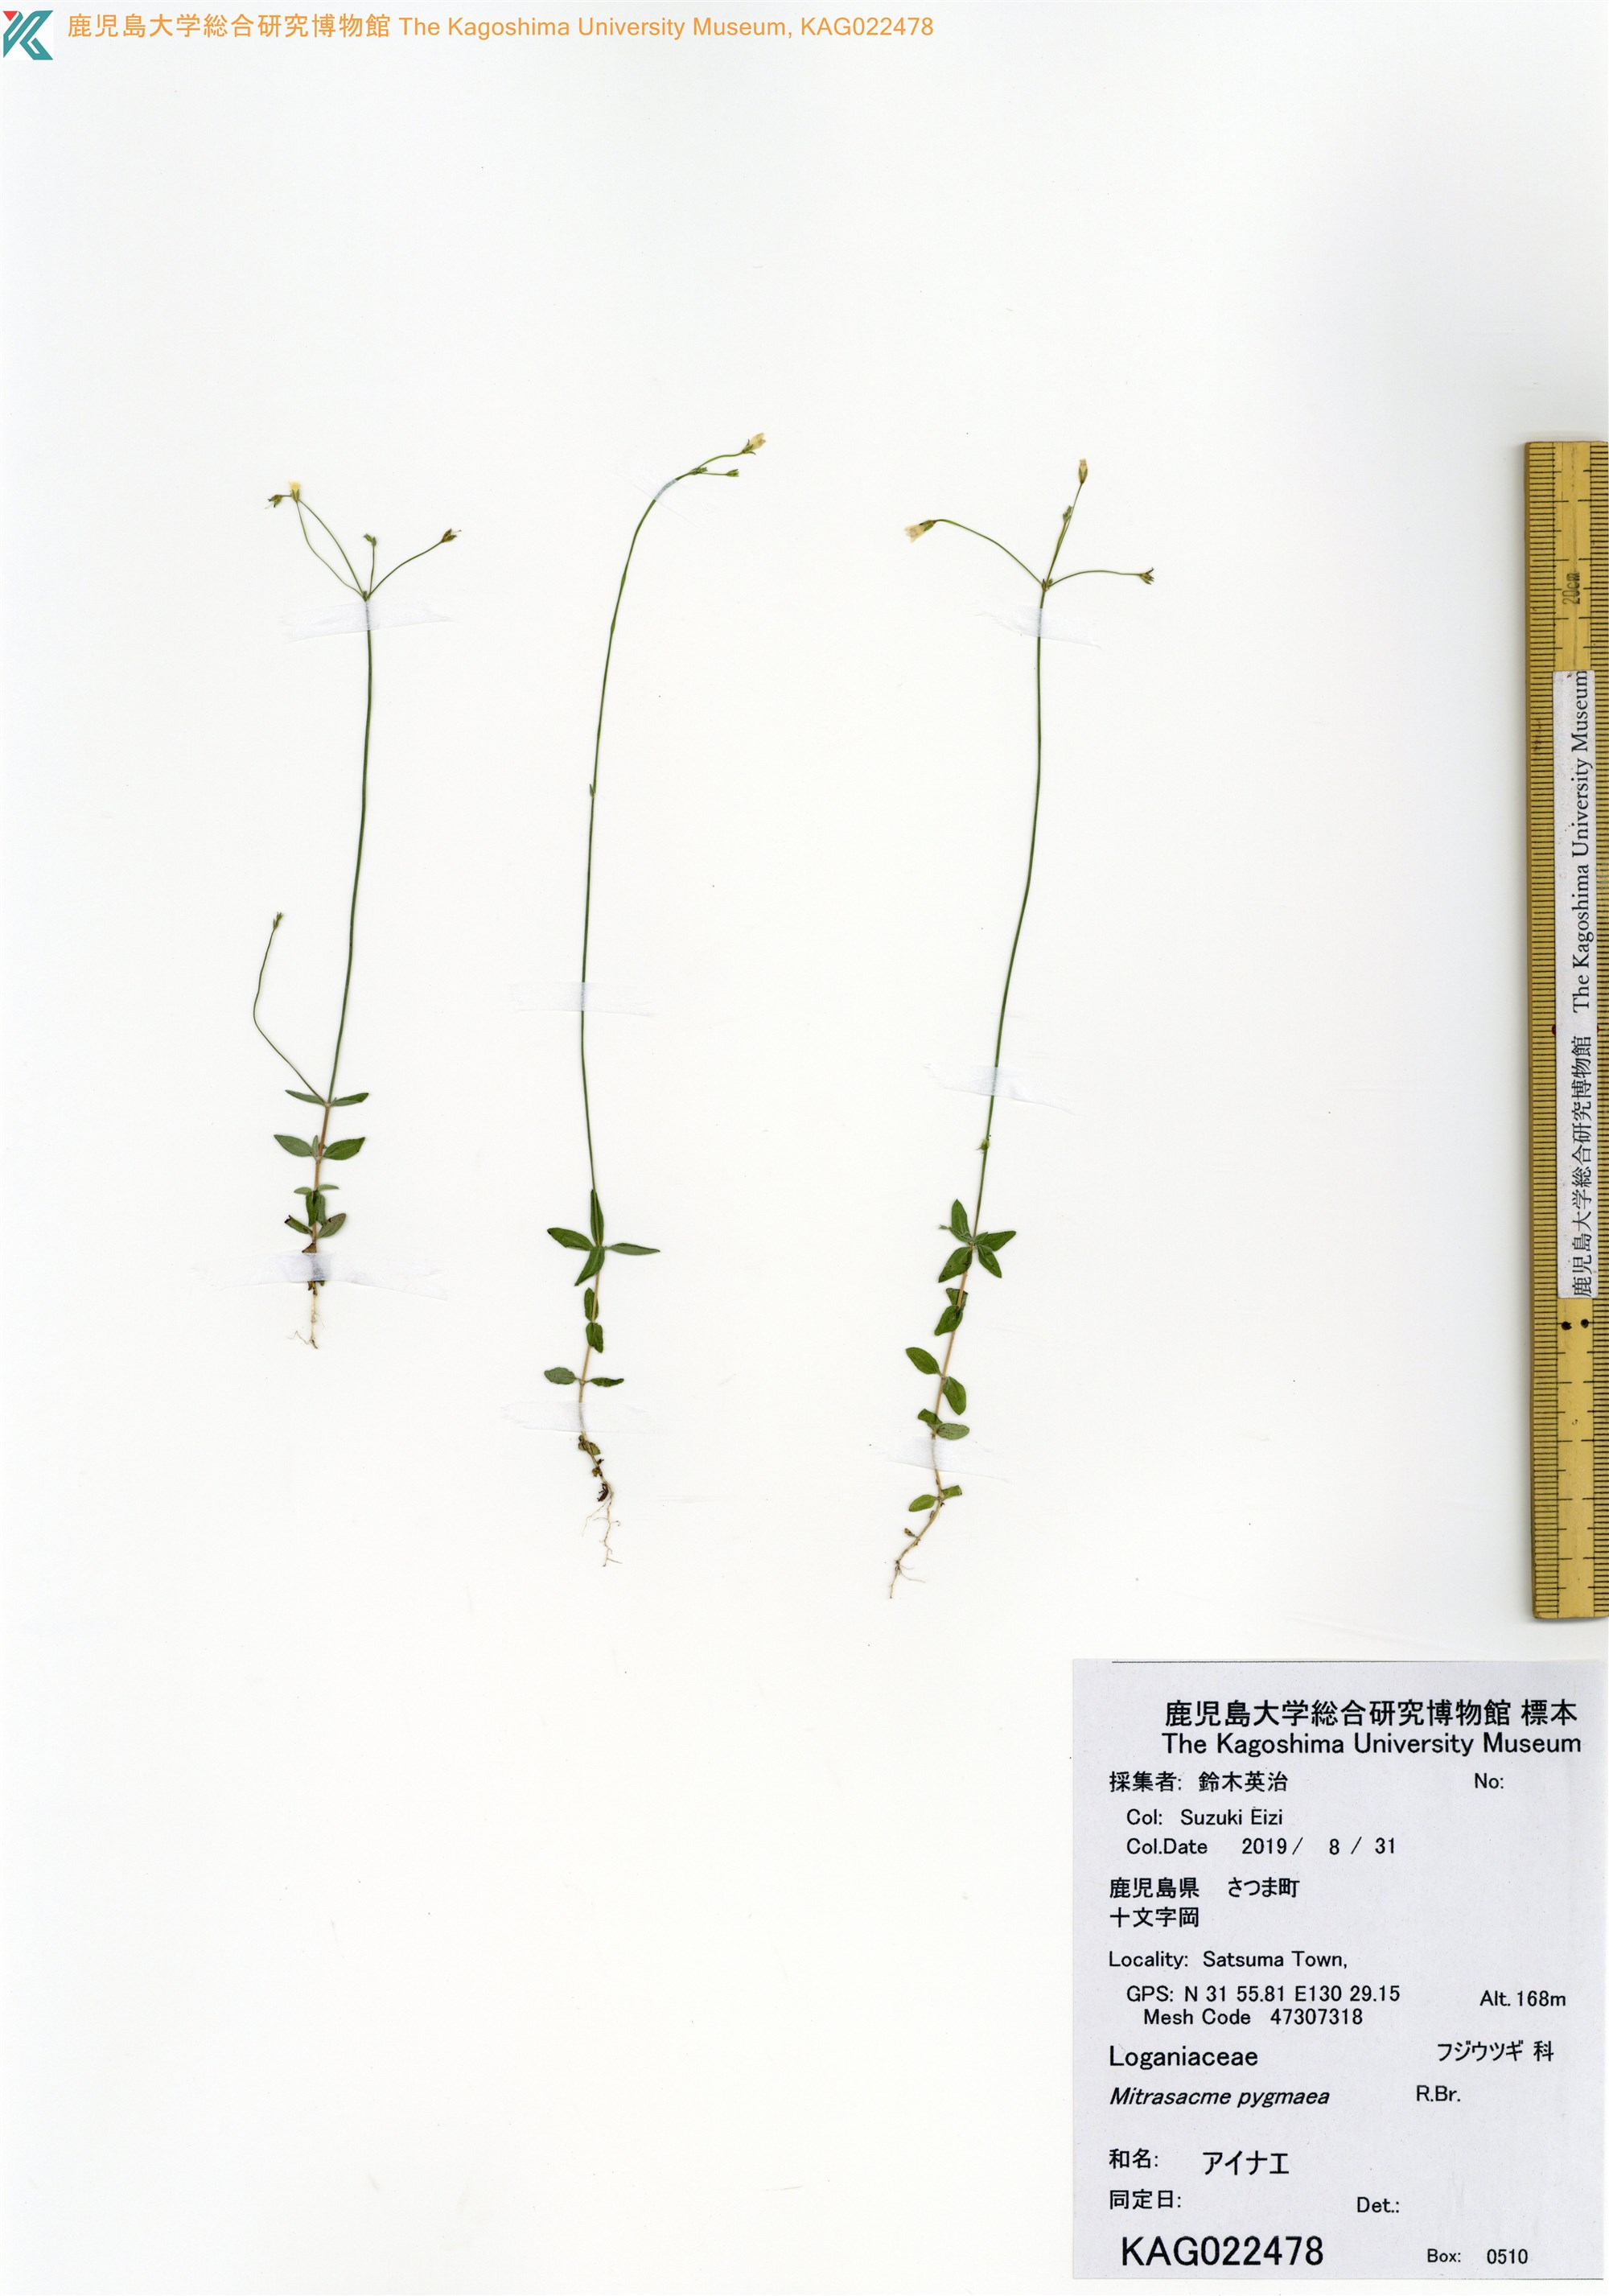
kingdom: Plantae
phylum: Tracheophyta
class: Magnoliopsida
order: Gentianales
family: Loganiaceae
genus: Mitrasacme
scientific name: Mitrasacme pygmaea
